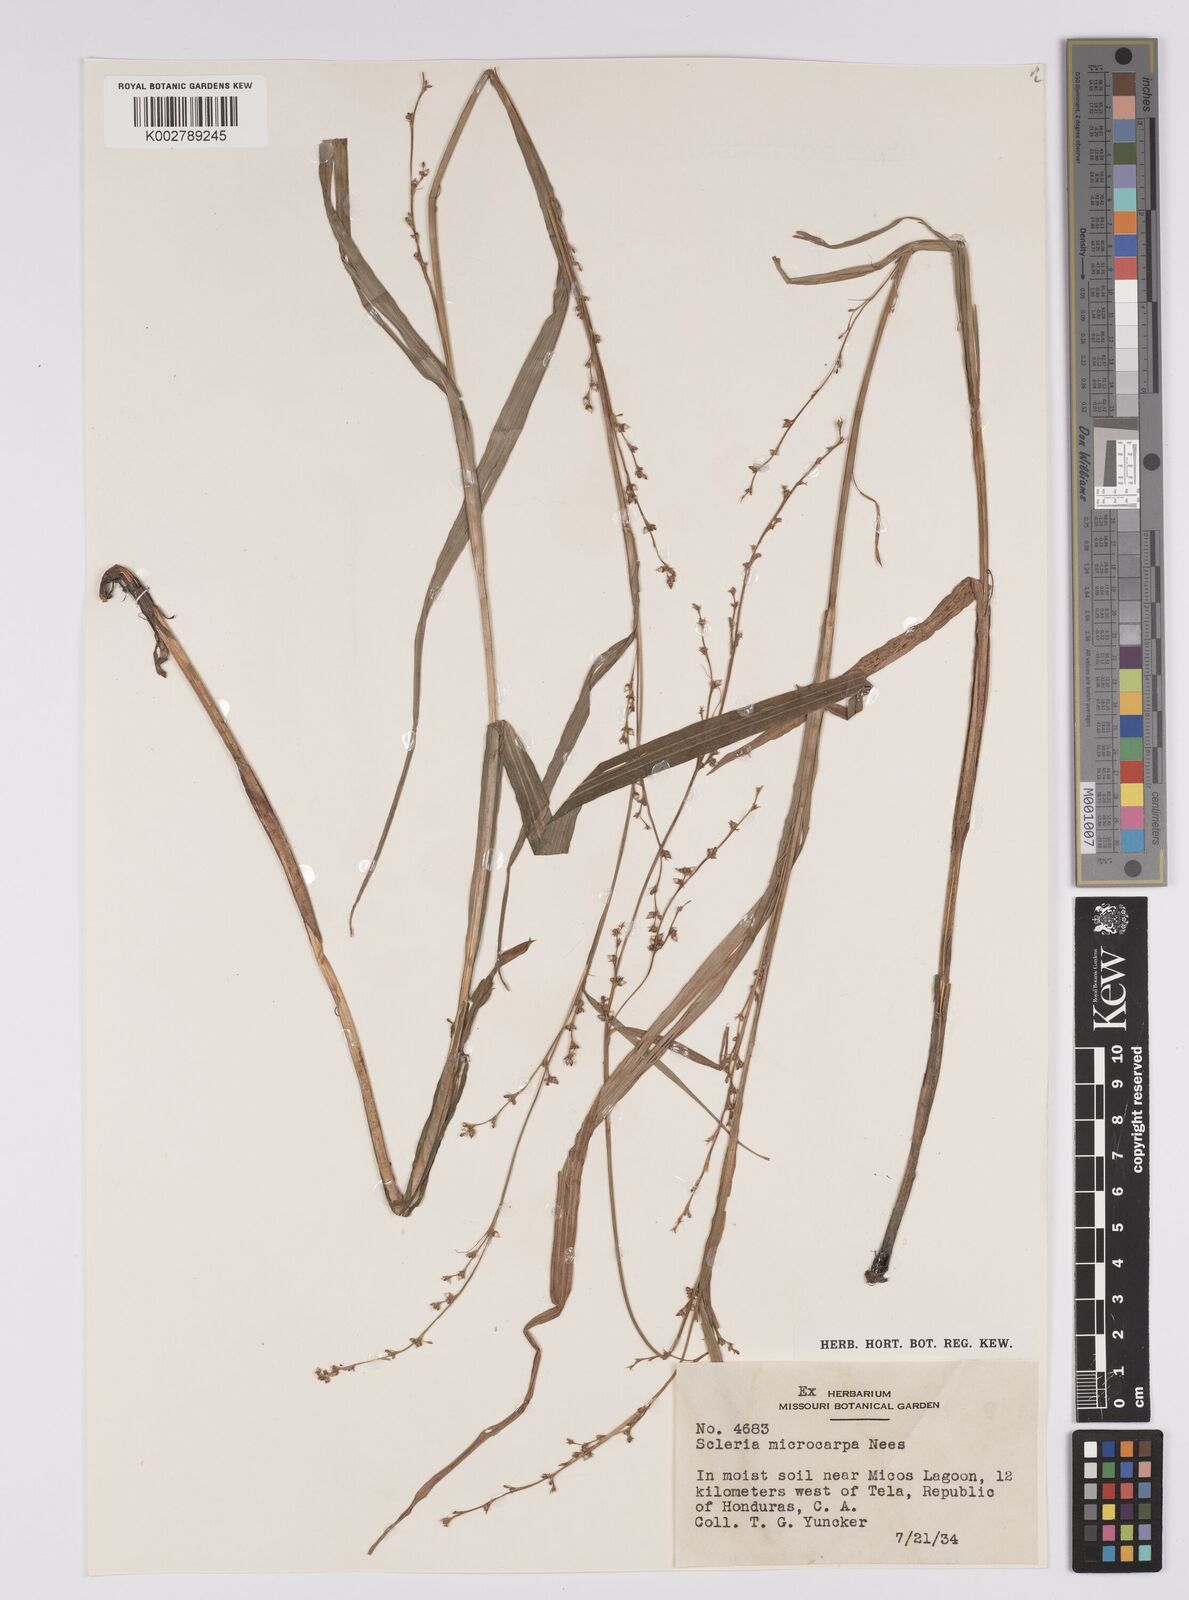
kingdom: Plantae
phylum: Tracheophyta
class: Liliopsida
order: Poales
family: Cyperaceae
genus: Scleria
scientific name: Scleria microcarpa
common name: Tropical nutrush
